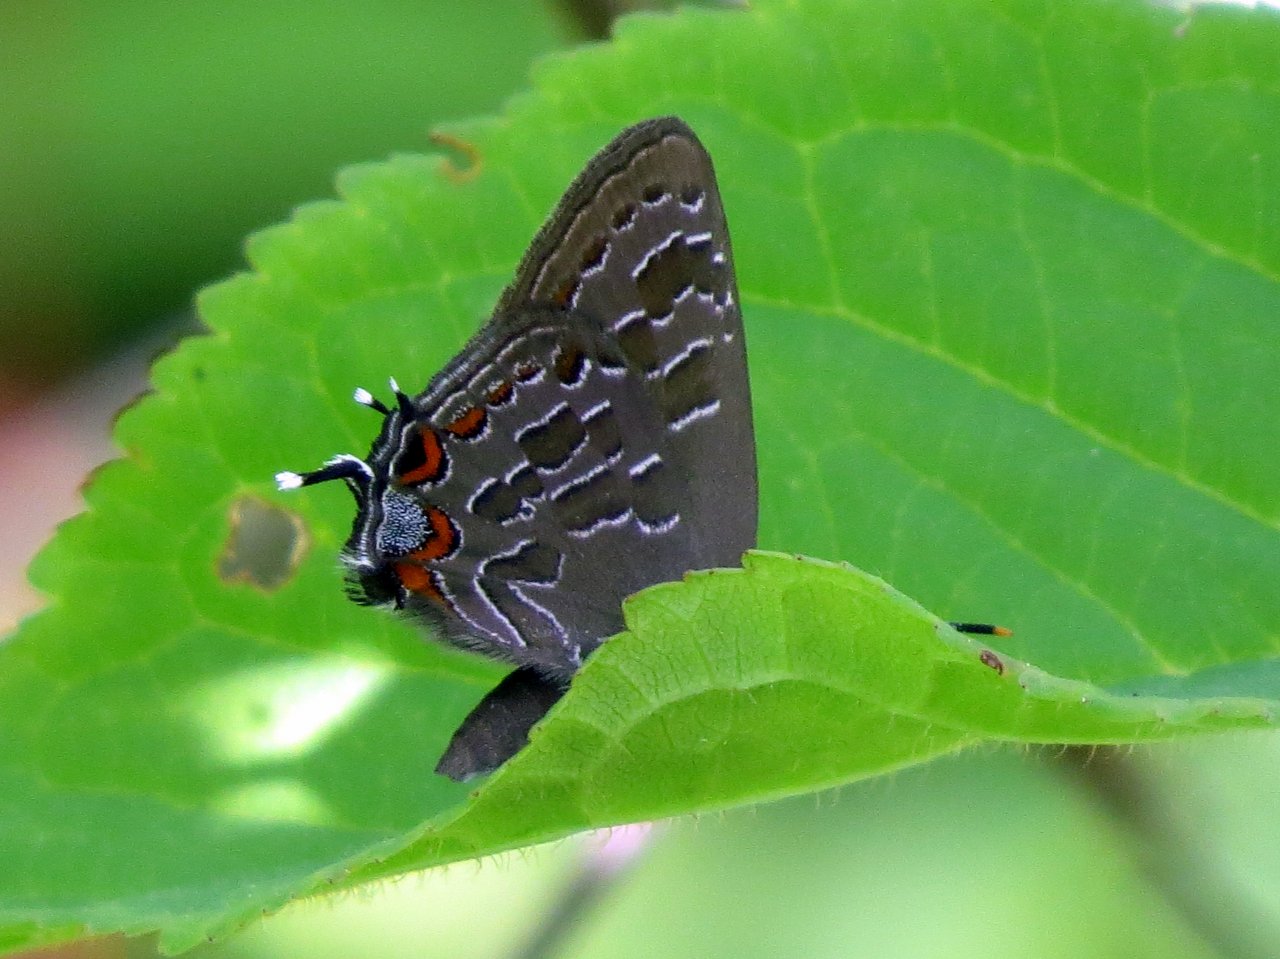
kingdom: Animalia
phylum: Arthropoda
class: Insecta
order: Lepidoptera
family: Lycaenidae
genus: Satyrium
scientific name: Satyrium liparops
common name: Striped Hairstreak
